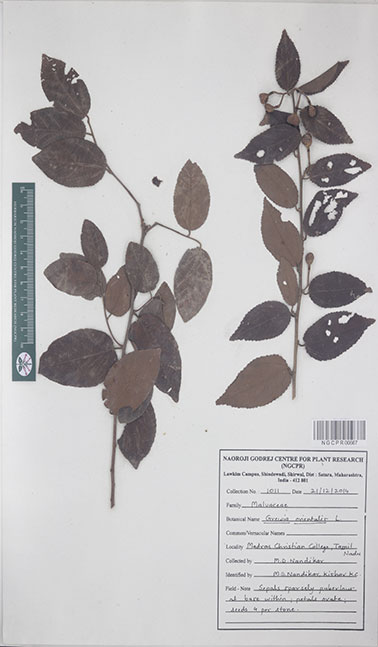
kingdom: Plantae
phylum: Tracheophyta
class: Magnoliopsida
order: Malvales
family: Malvaceae
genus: Grewia
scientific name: Grewia orientalis
